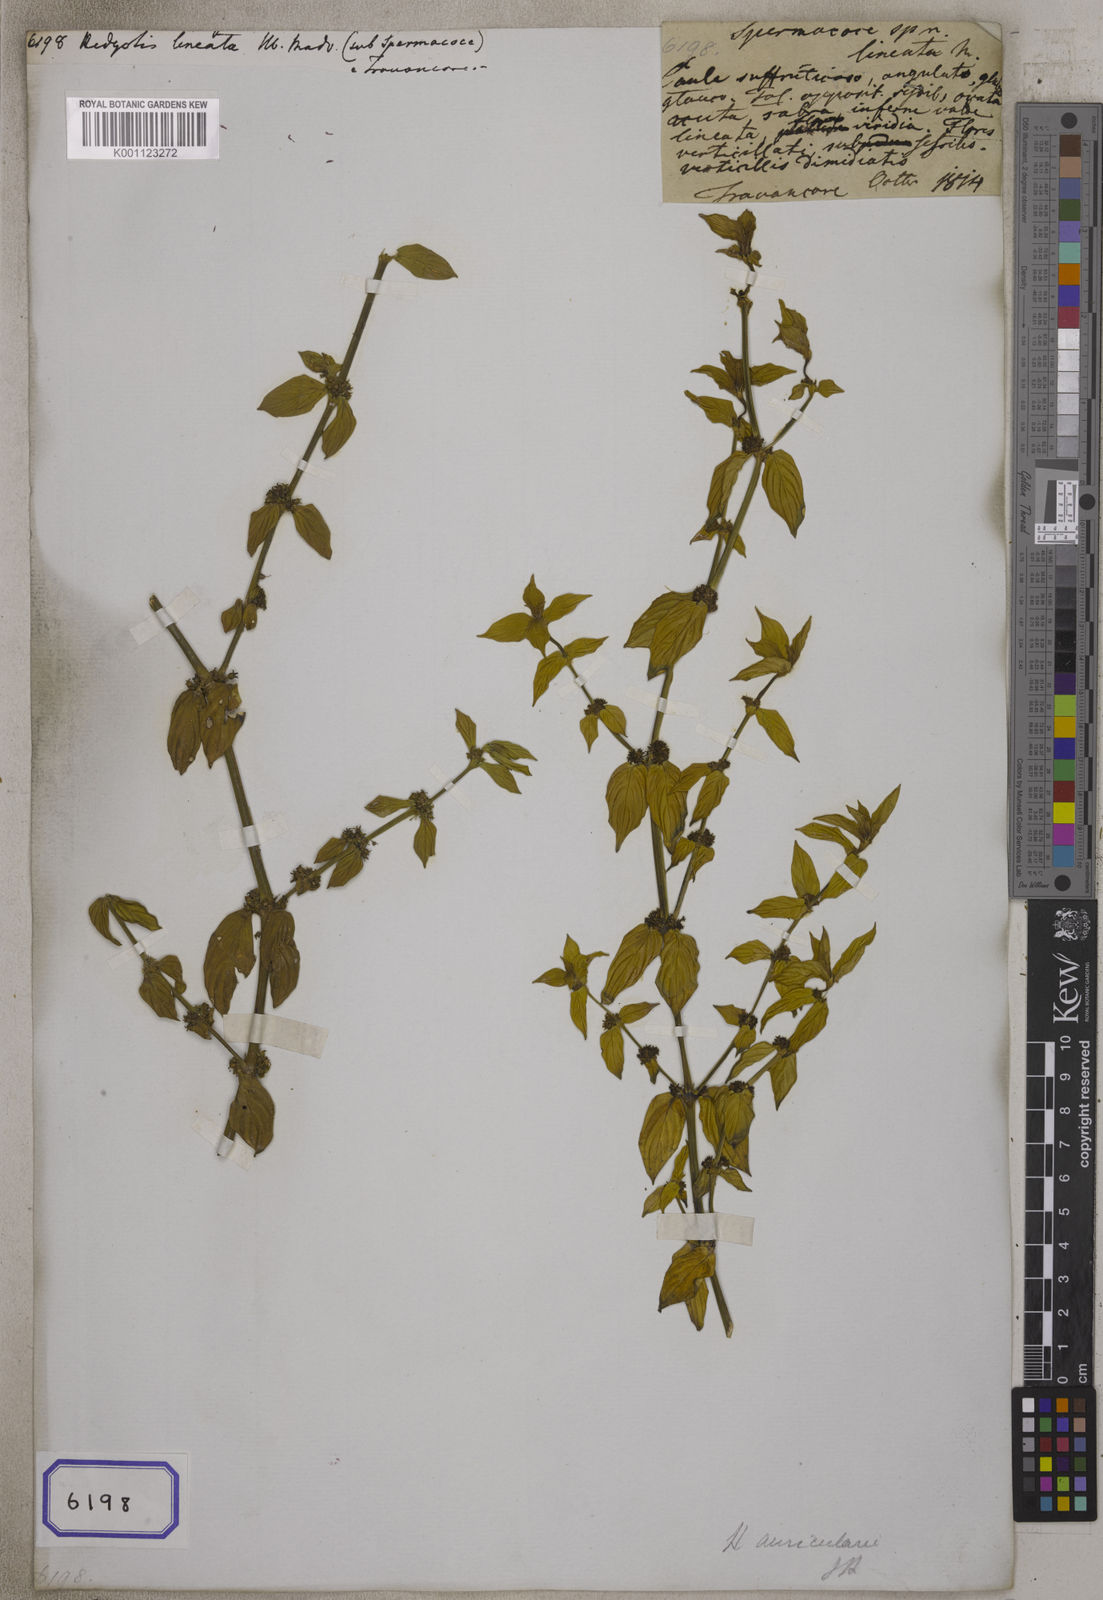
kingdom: Plantae
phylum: Tracheophyta
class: Magnoliopsida
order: Gentianales
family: Rubiaceae
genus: Hedyotis
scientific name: Hedyotis
